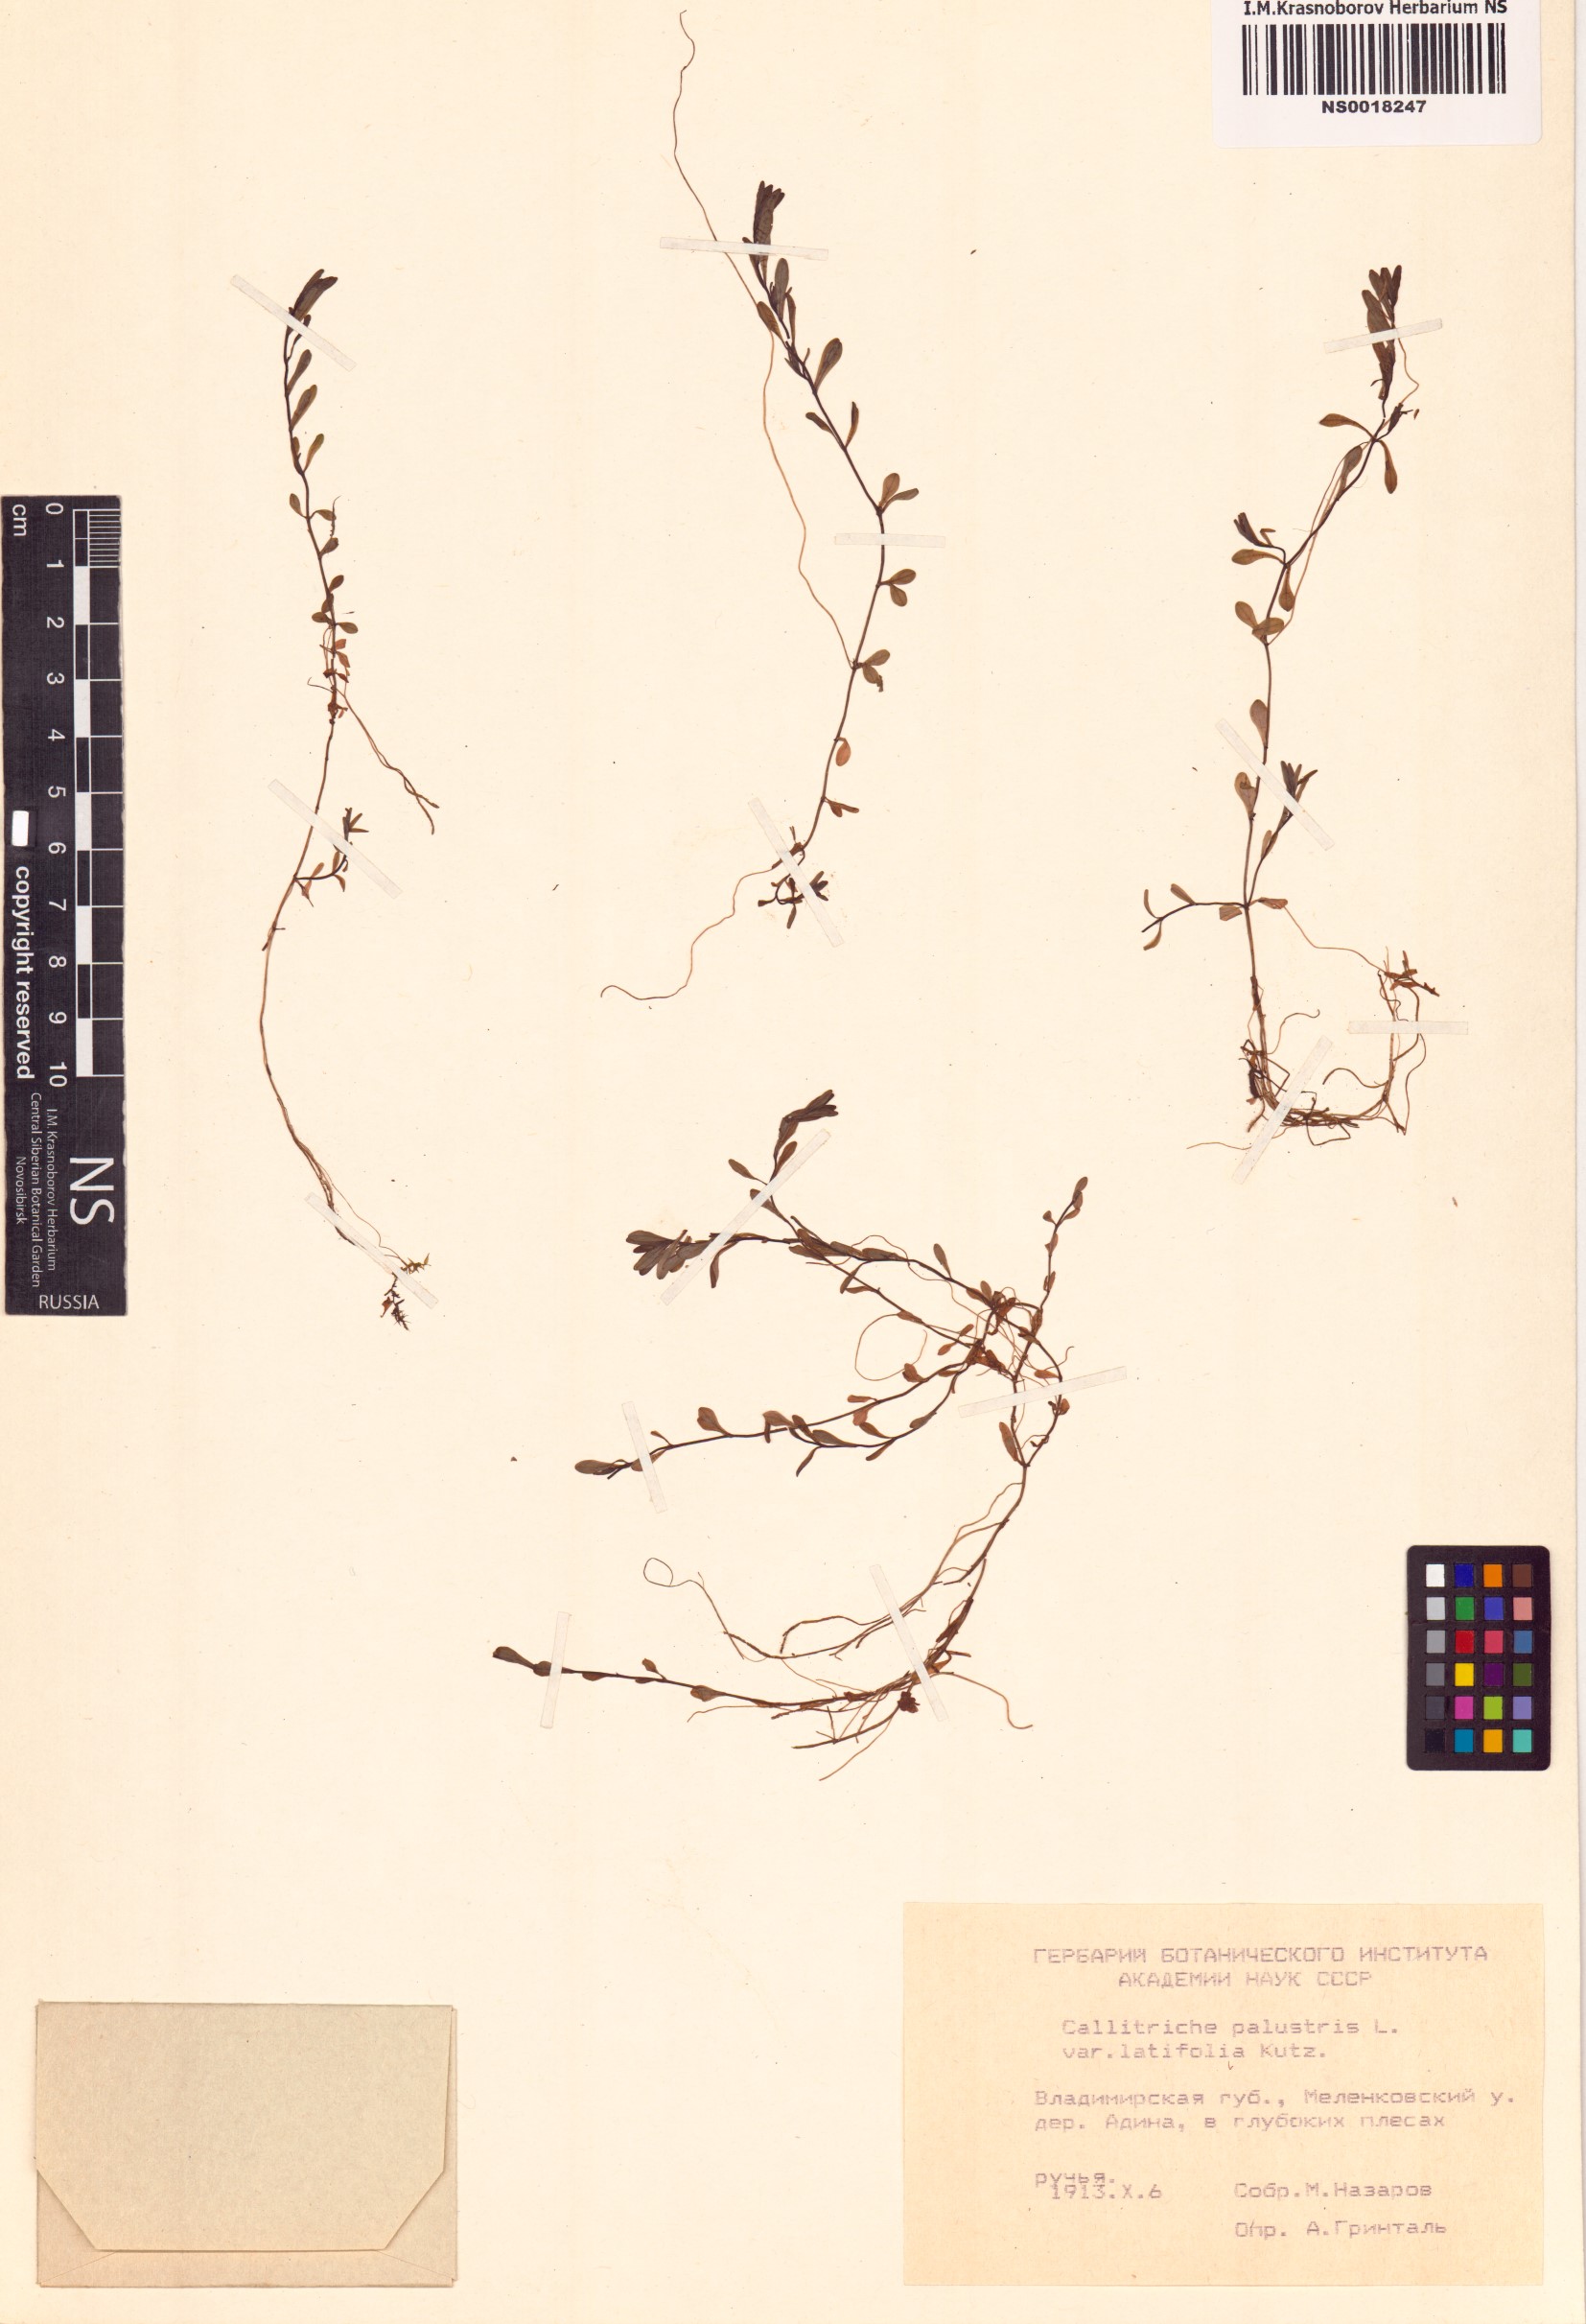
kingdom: Plantae
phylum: Tracheophyta
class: Magnoliopsida
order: Lamiales
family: Plantaginaceae
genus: Callitriche
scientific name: Callitriche palustris
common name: Spring water-starwort
